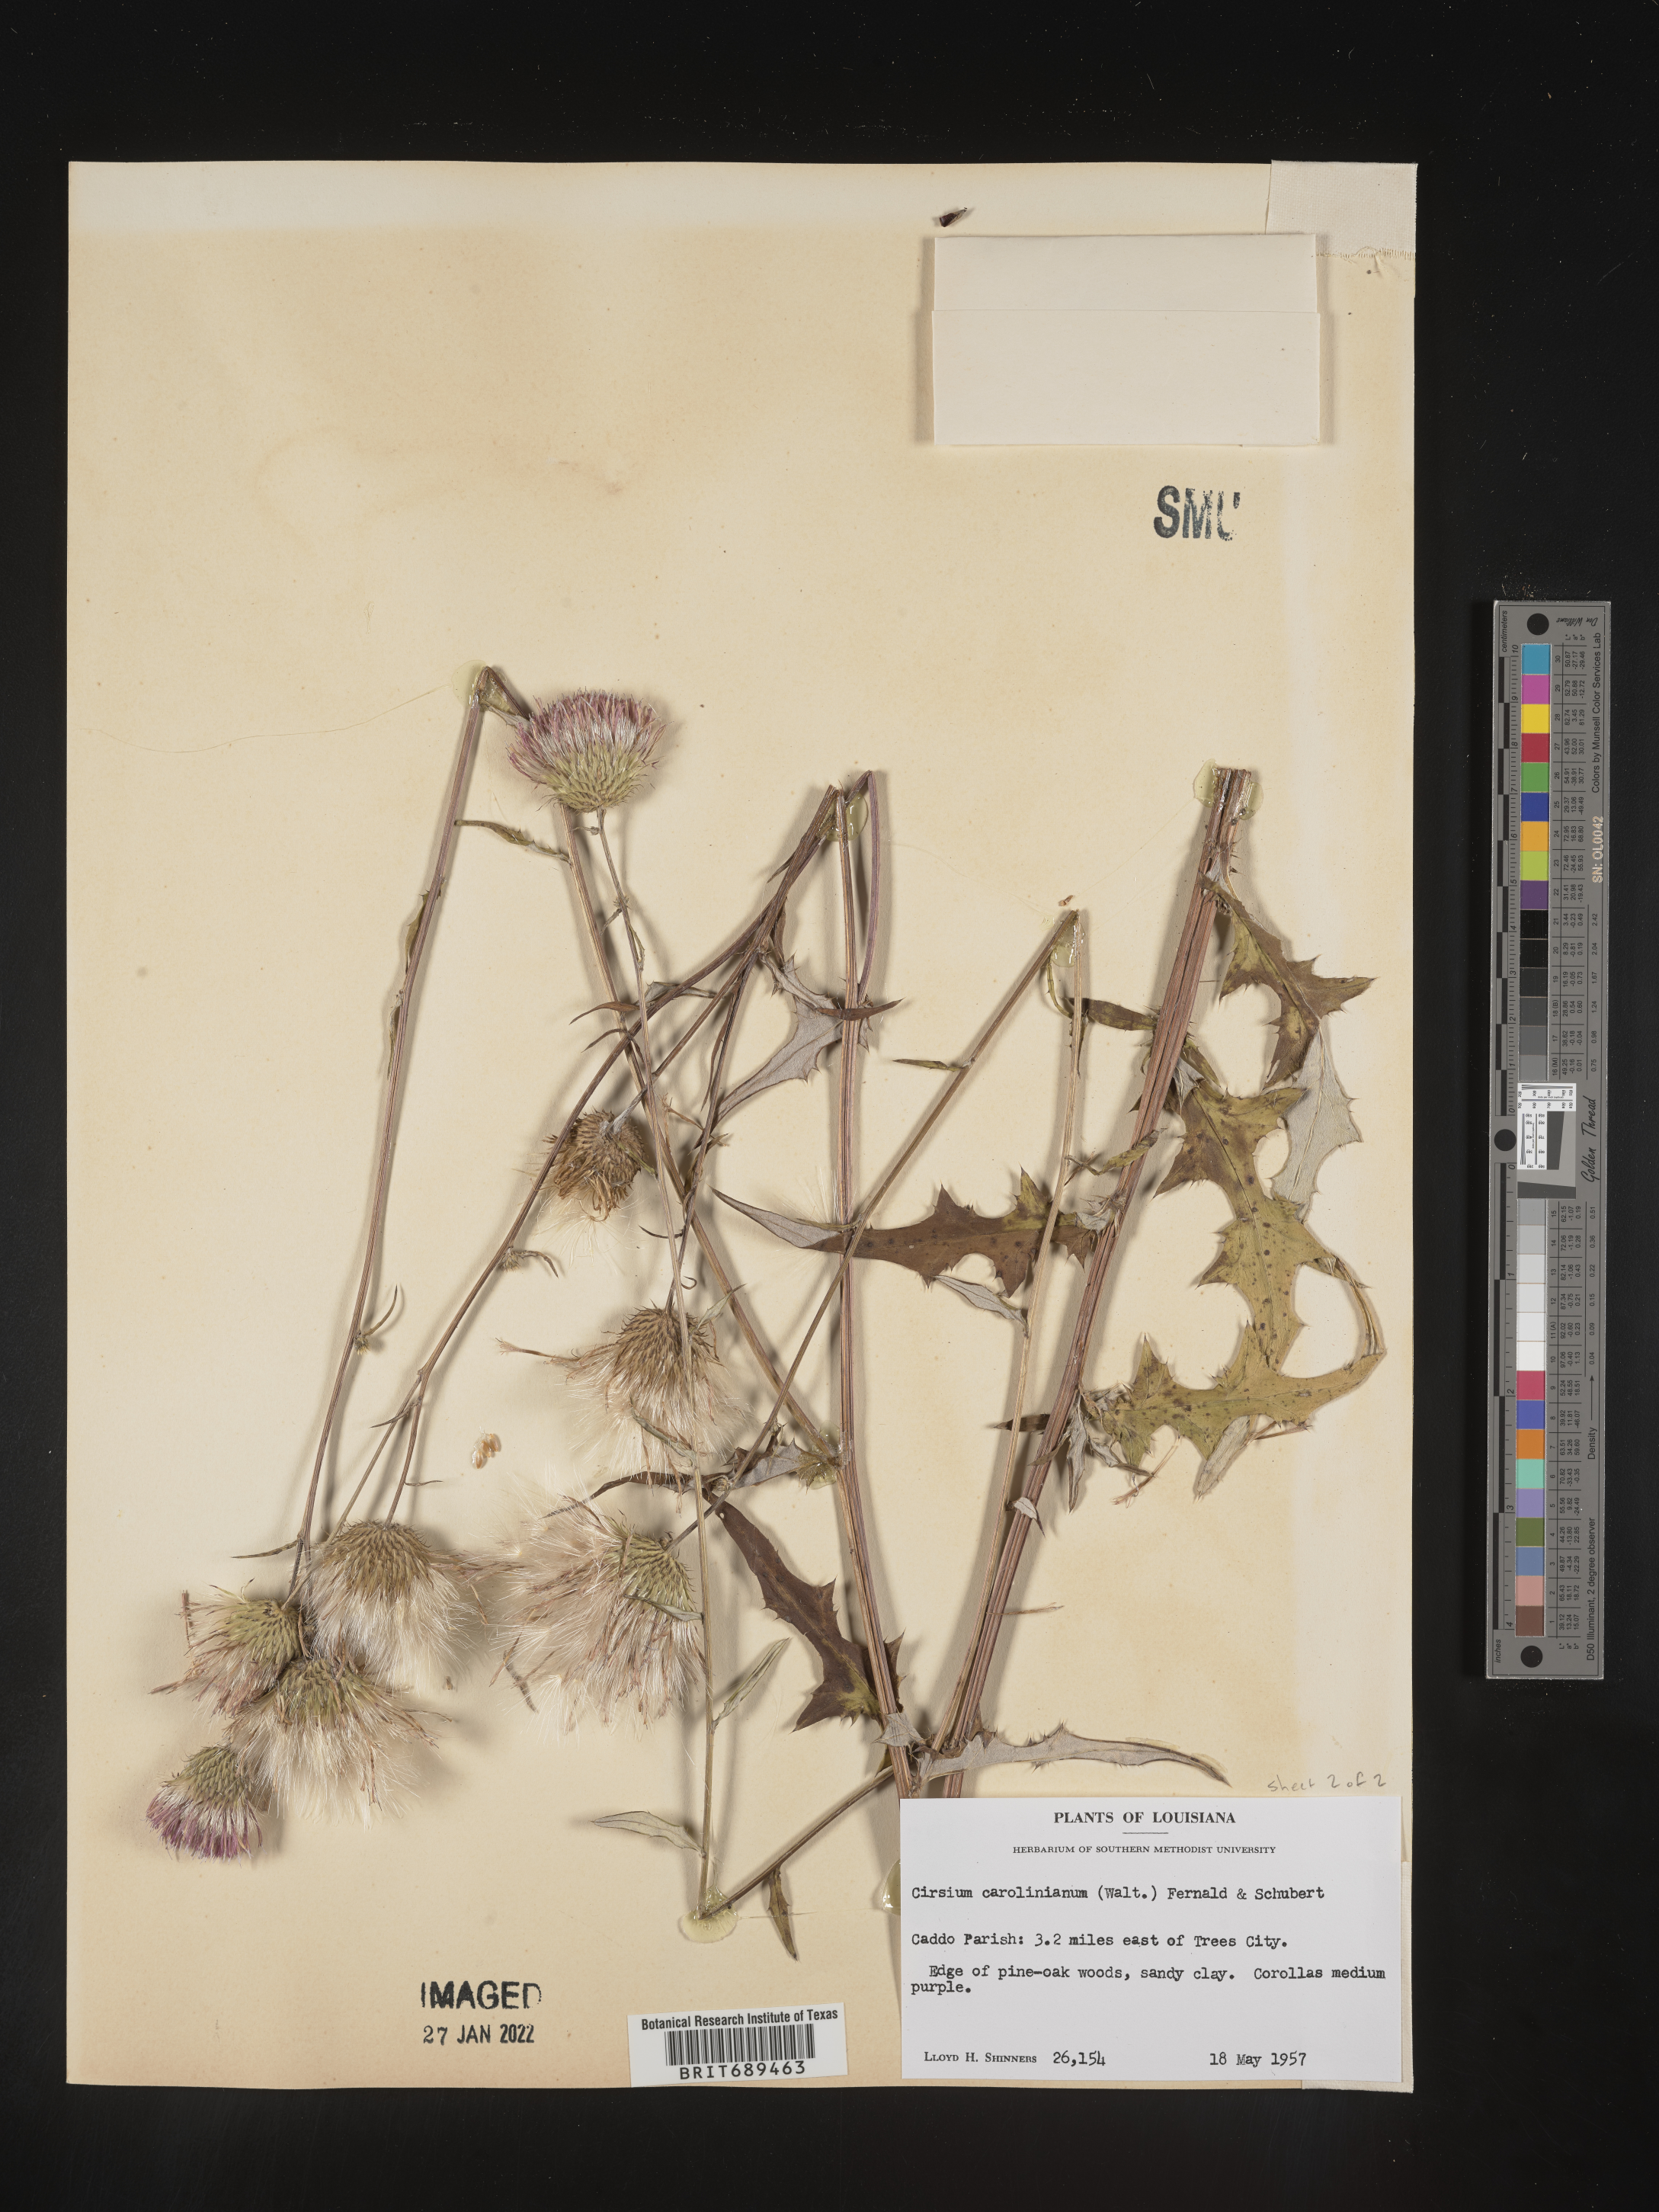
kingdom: Plantae
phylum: Tracheophyta
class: Magnoliopsida
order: Asterales
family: Asteraceae
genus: Cirsium
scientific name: Cirsium carolinianum
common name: Carolina thistle
